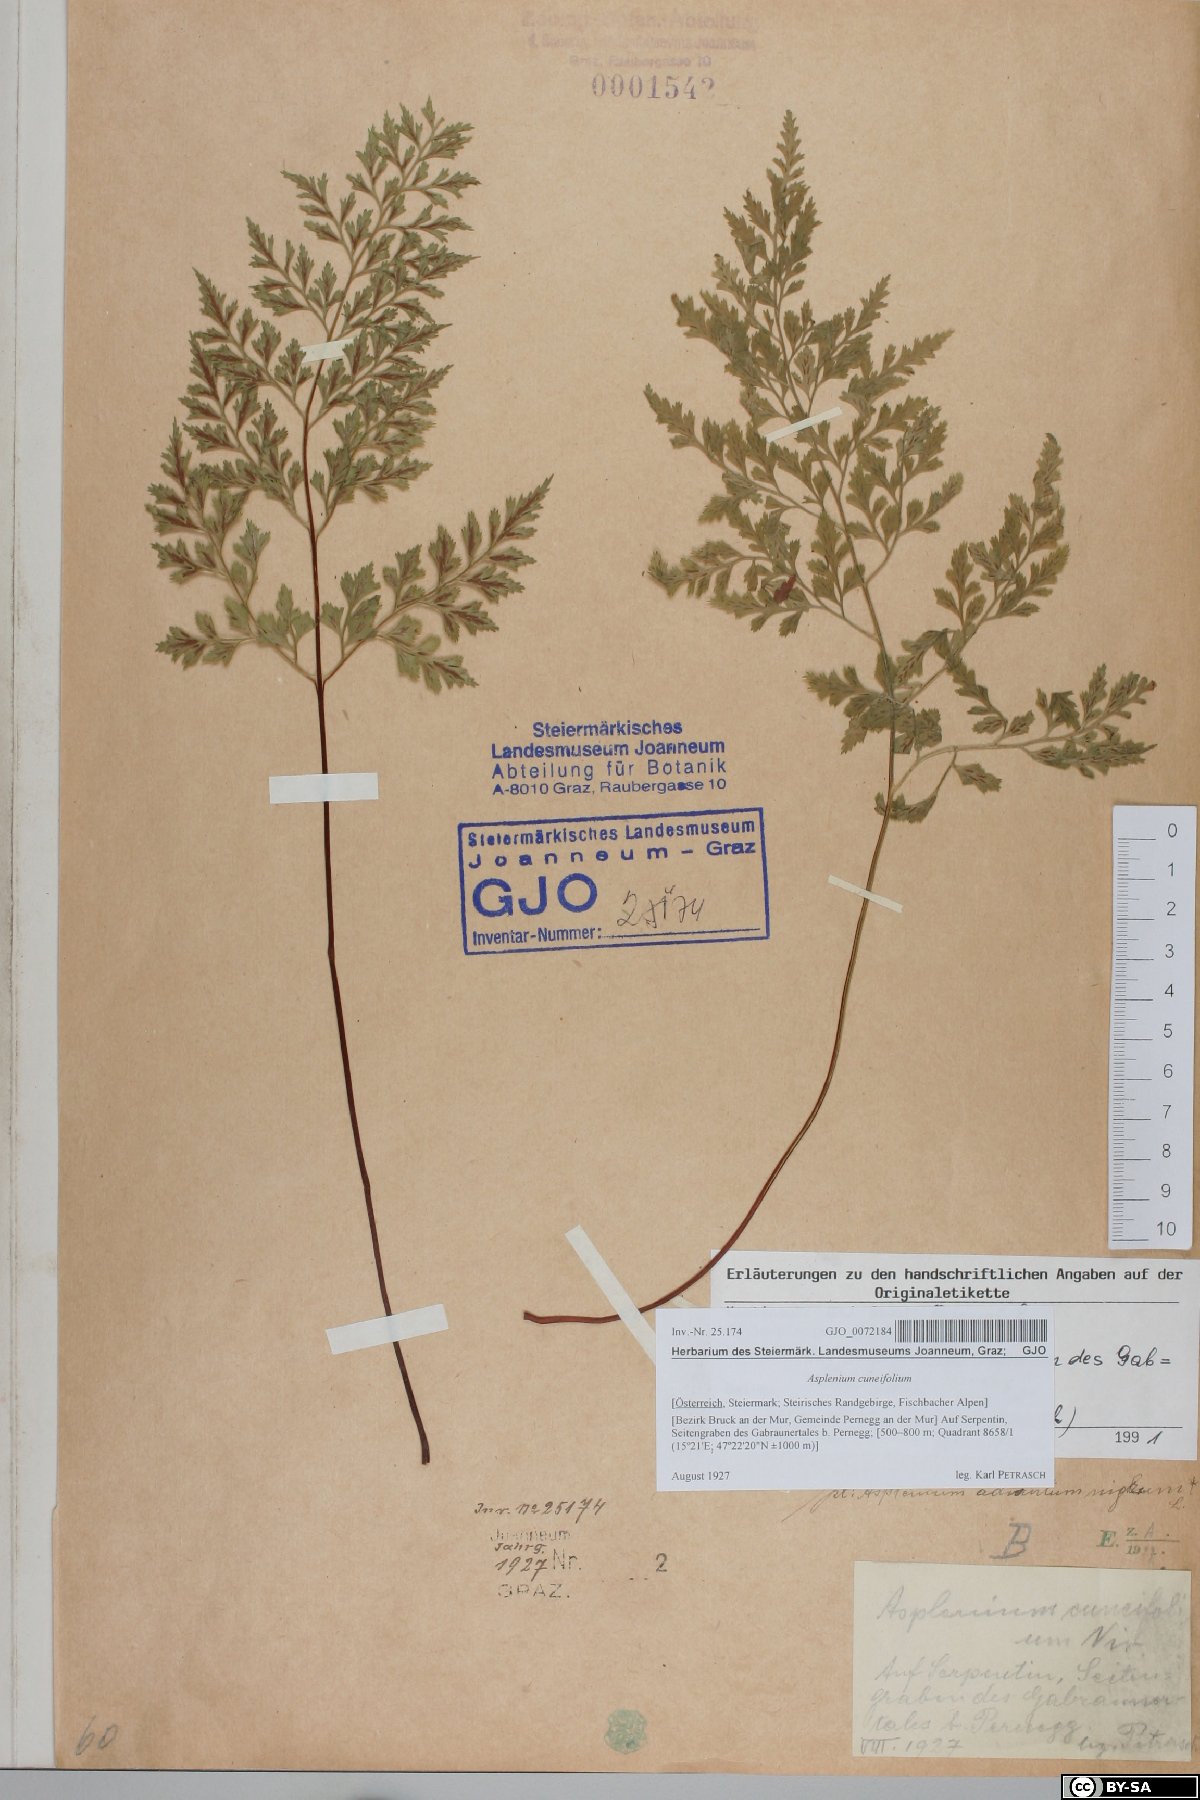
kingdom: Plantae
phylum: Tracheophyta
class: Polypodiopsida
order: Polypodiales
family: Aspleniaceae
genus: Asplenium
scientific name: Asplenium cuneifolium
